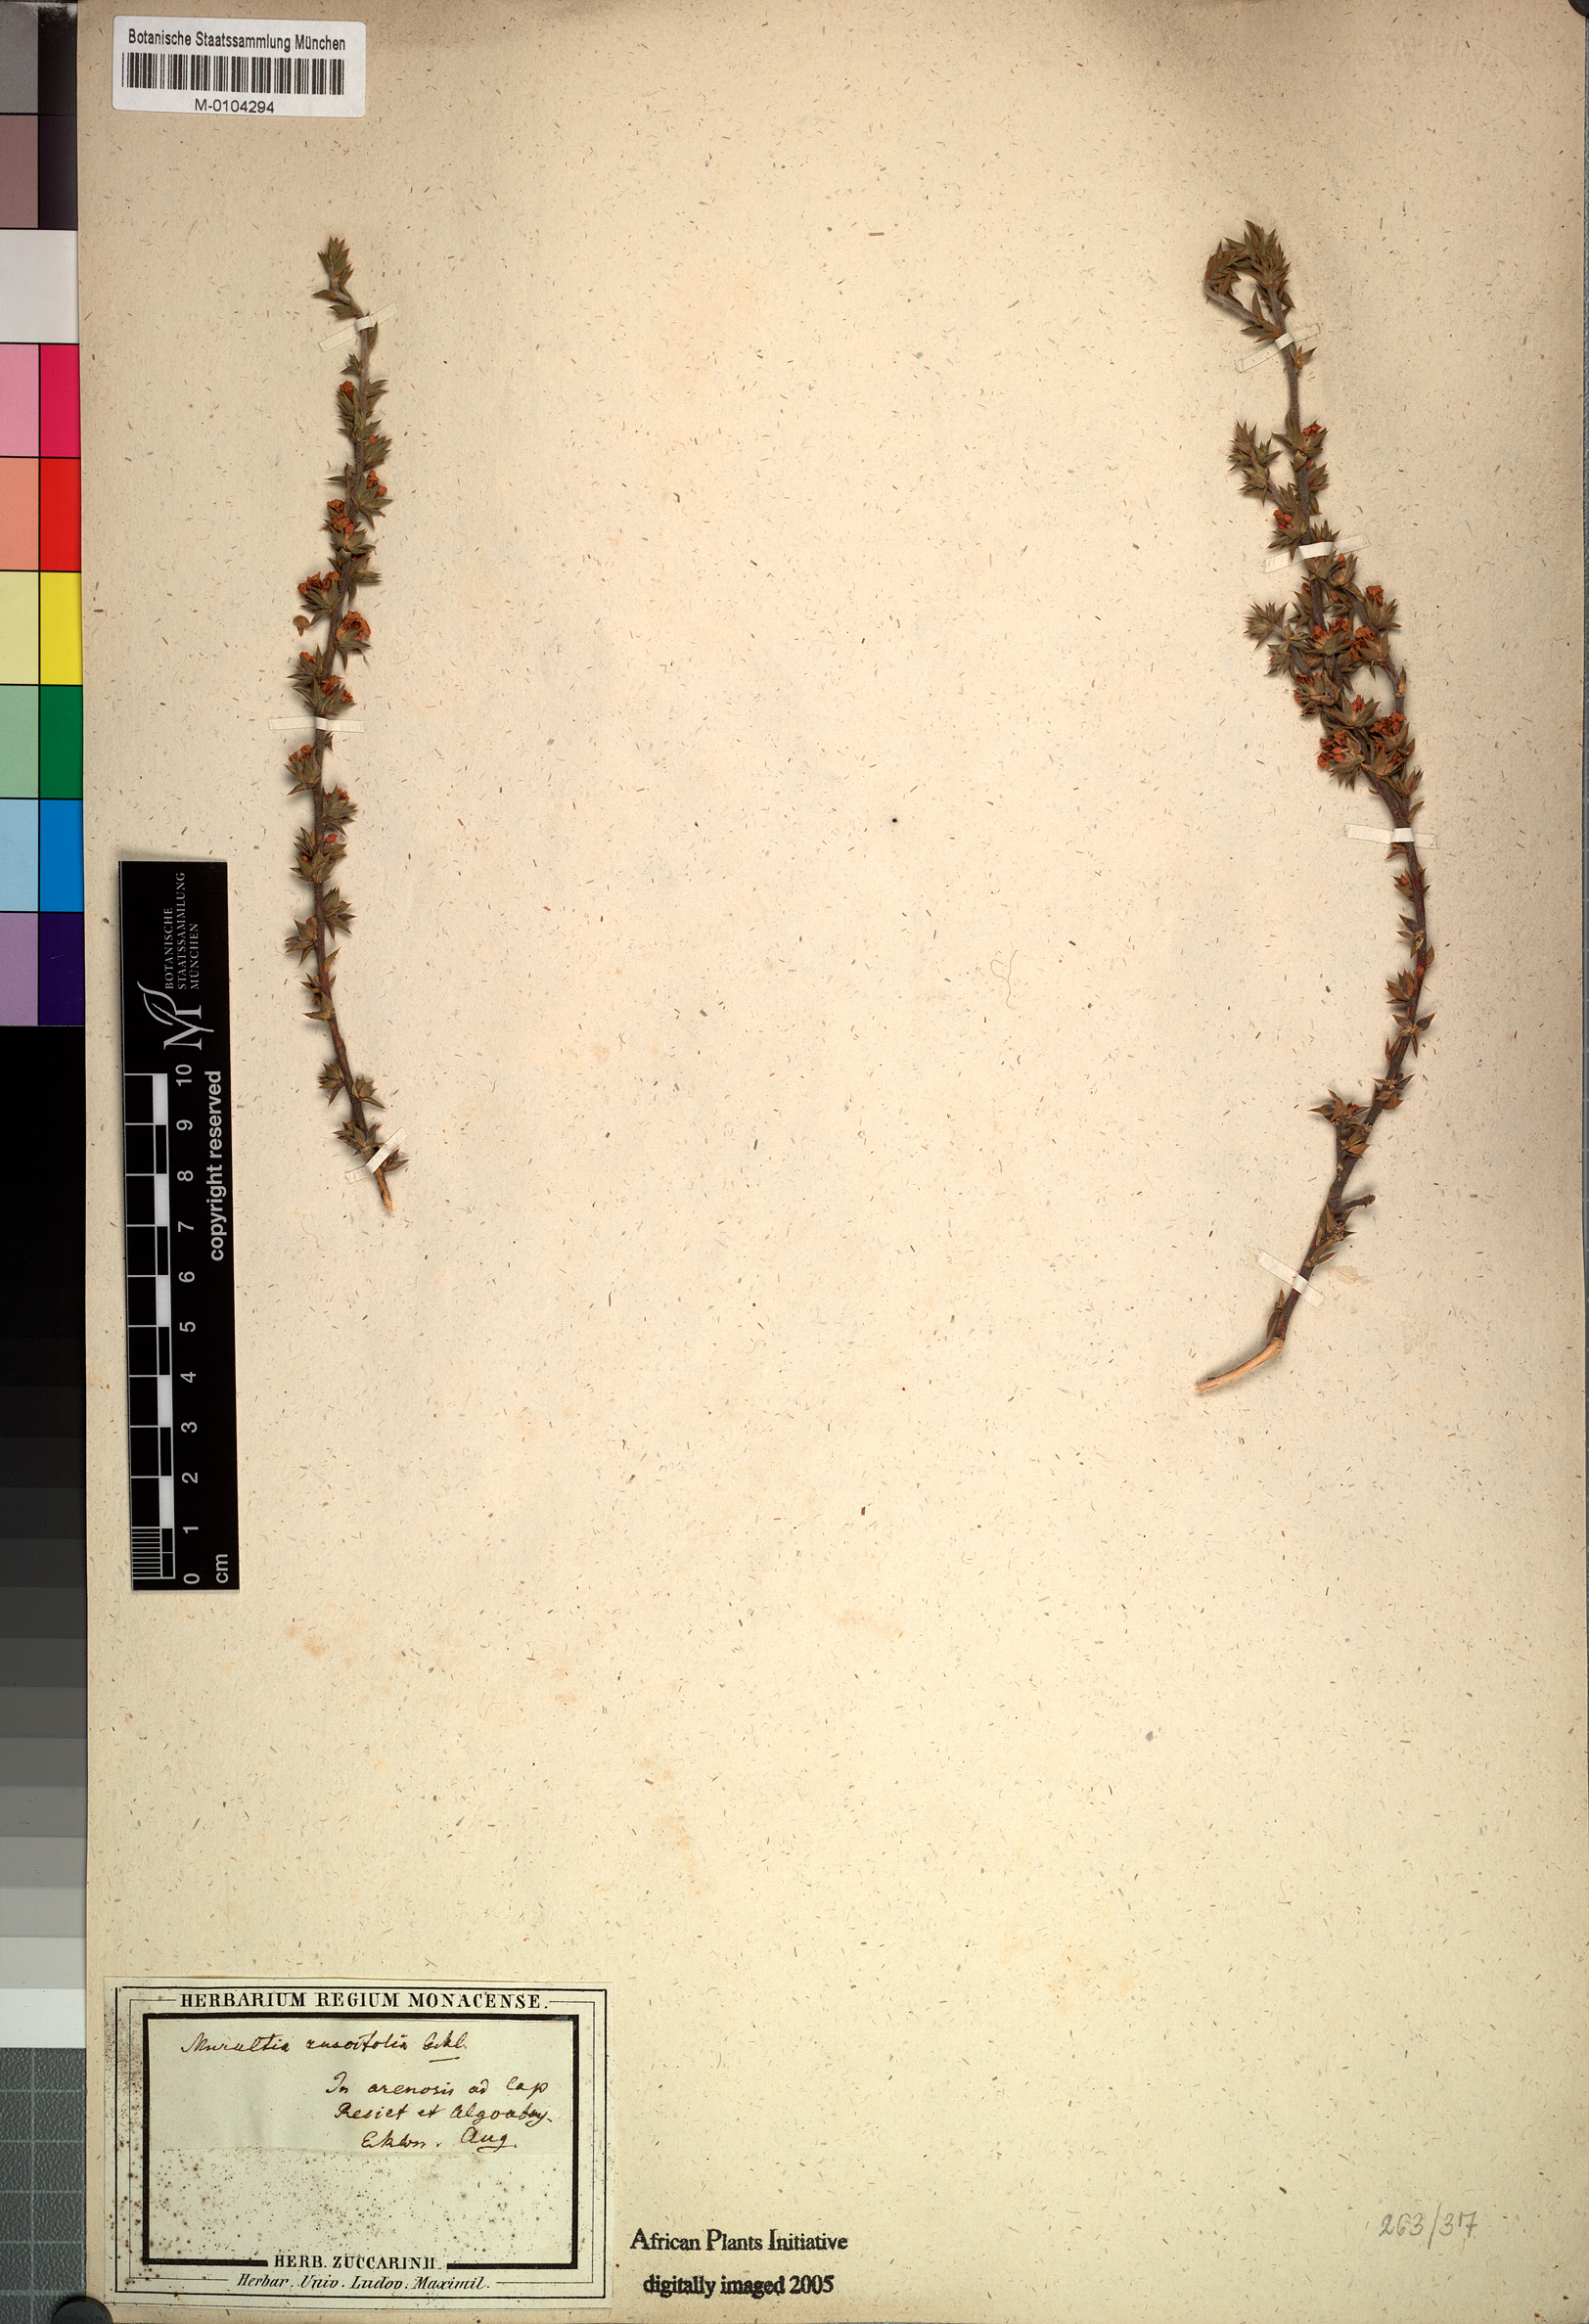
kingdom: Plantae
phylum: Tracheophyta
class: Magnoliopsida
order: Fabales
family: Polygalaceae
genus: Muraltia
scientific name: Muraltia squarrosa
